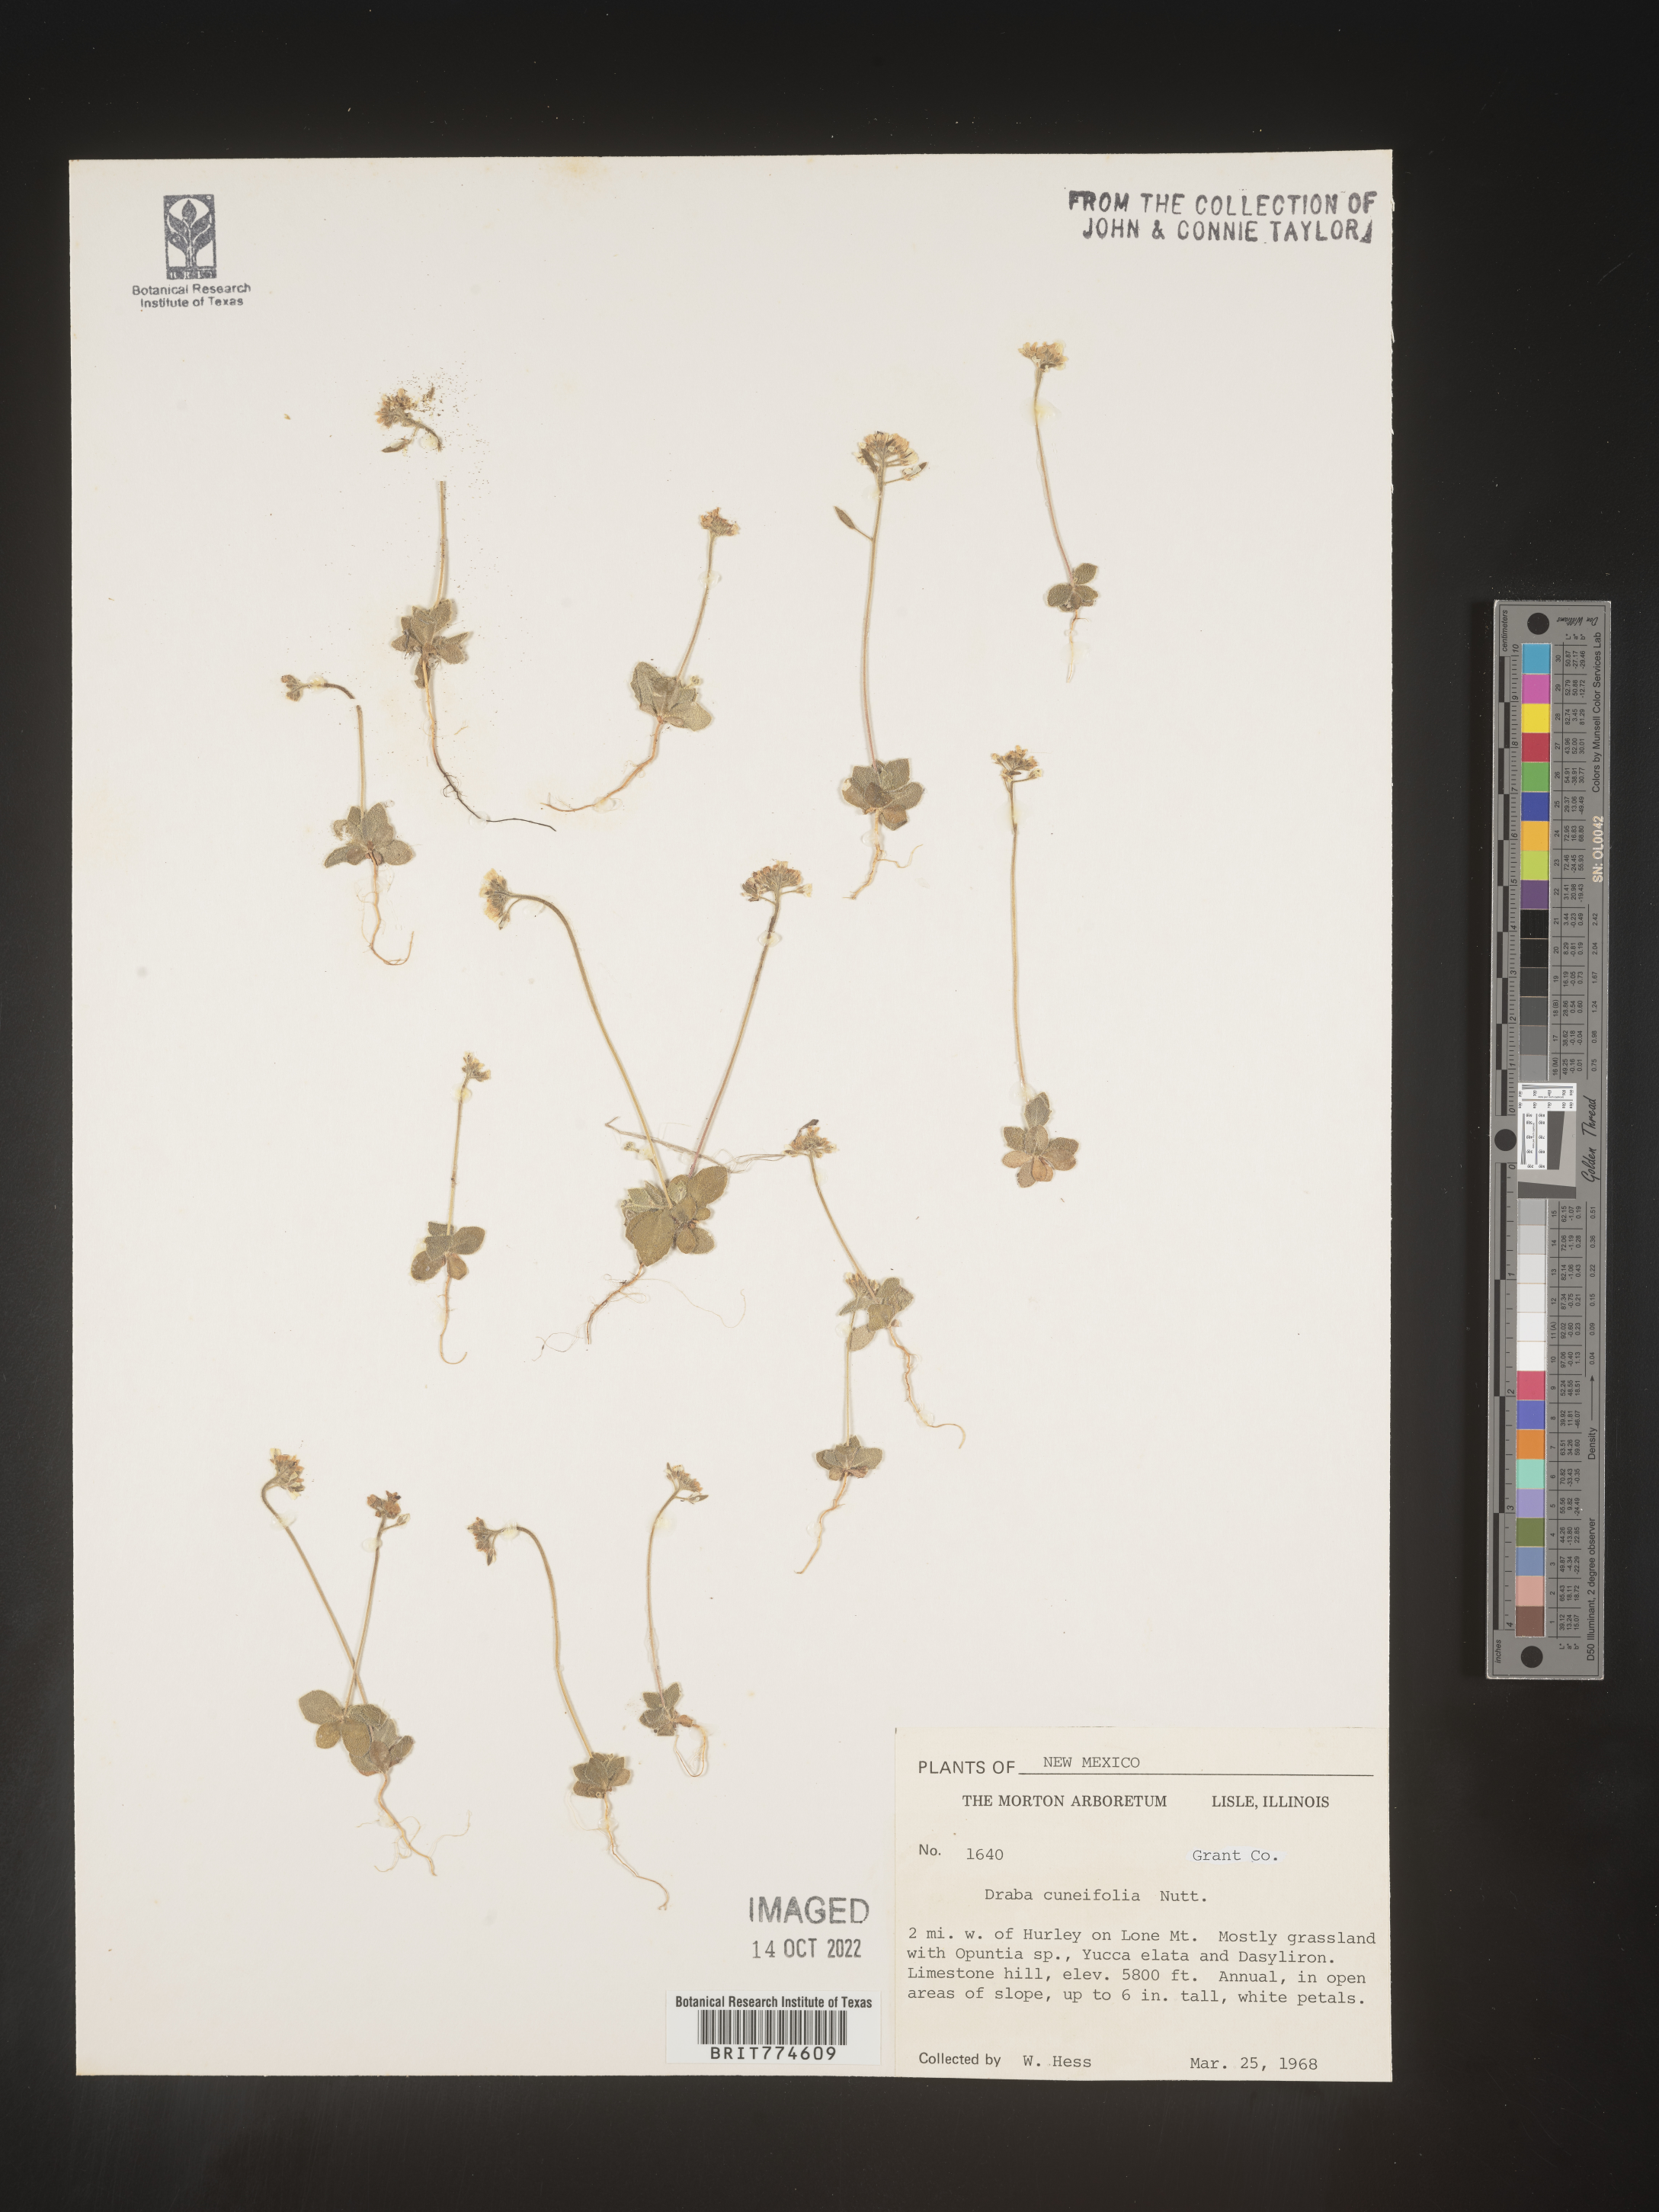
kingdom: Plantae
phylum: Tracheophyta
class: Magnoliopsida
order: Brassicales
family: Brassicaceae
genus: Tomostima
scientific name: Tomostima cuneifolia
